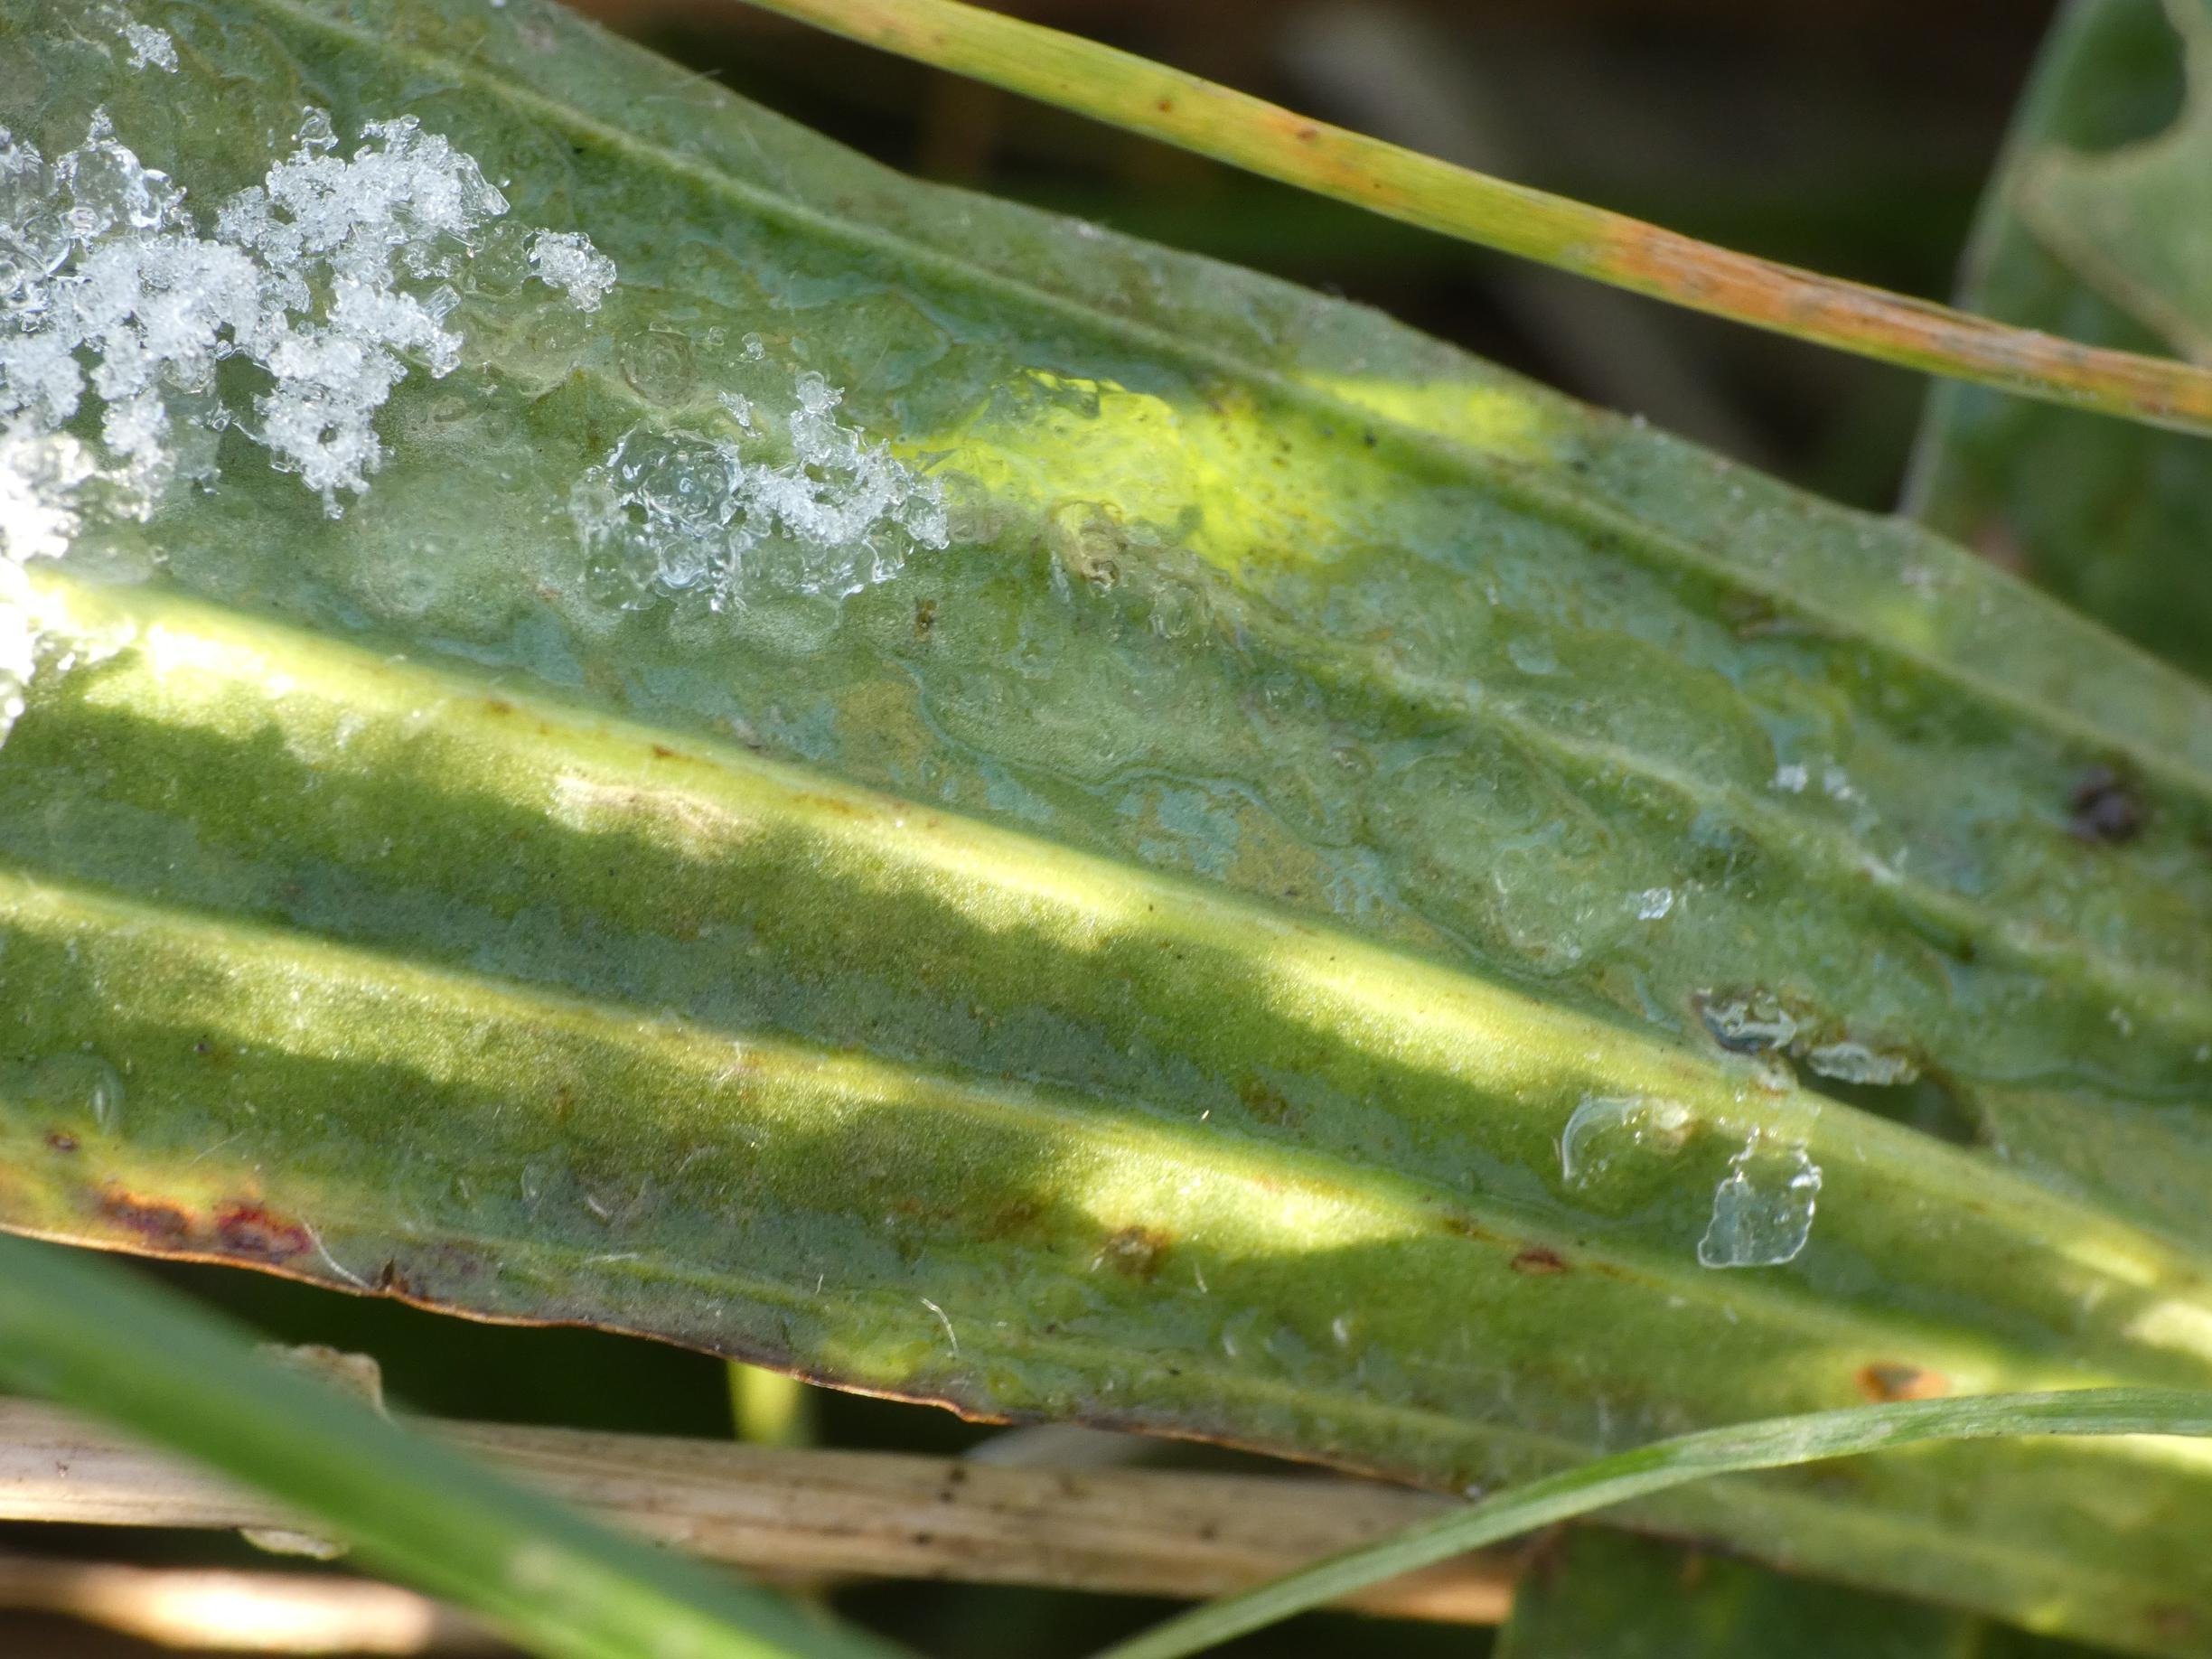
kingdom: Plantae
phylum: Tracheophyta
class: Magnoliopsida
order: Lamiales
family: Plantaginaceae
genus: Plantago
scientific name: Plantago lanceolata
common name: Lancet-vejbred
